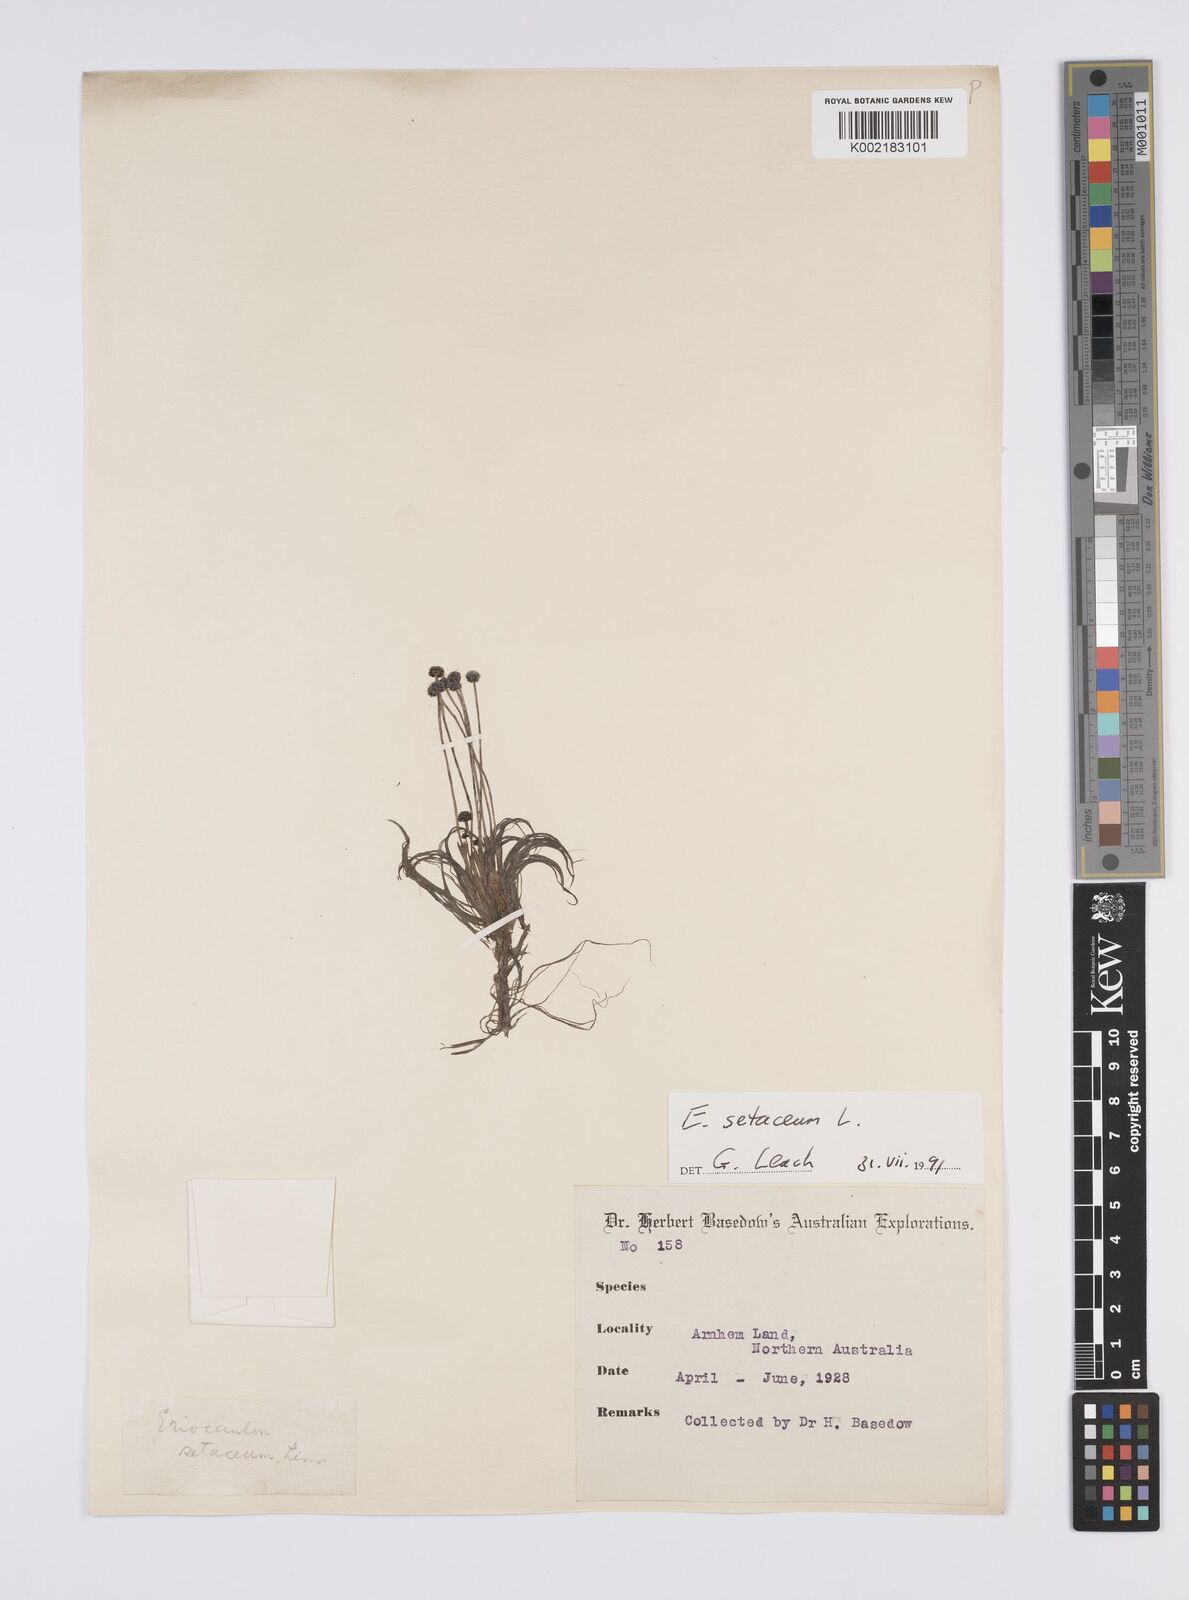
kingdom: Plantae
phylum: Tracheophyta
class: Liliopsida
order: Poales
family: Eriocaulaceae
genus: Eriocaulon
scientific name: Eriocaulon setaceum
